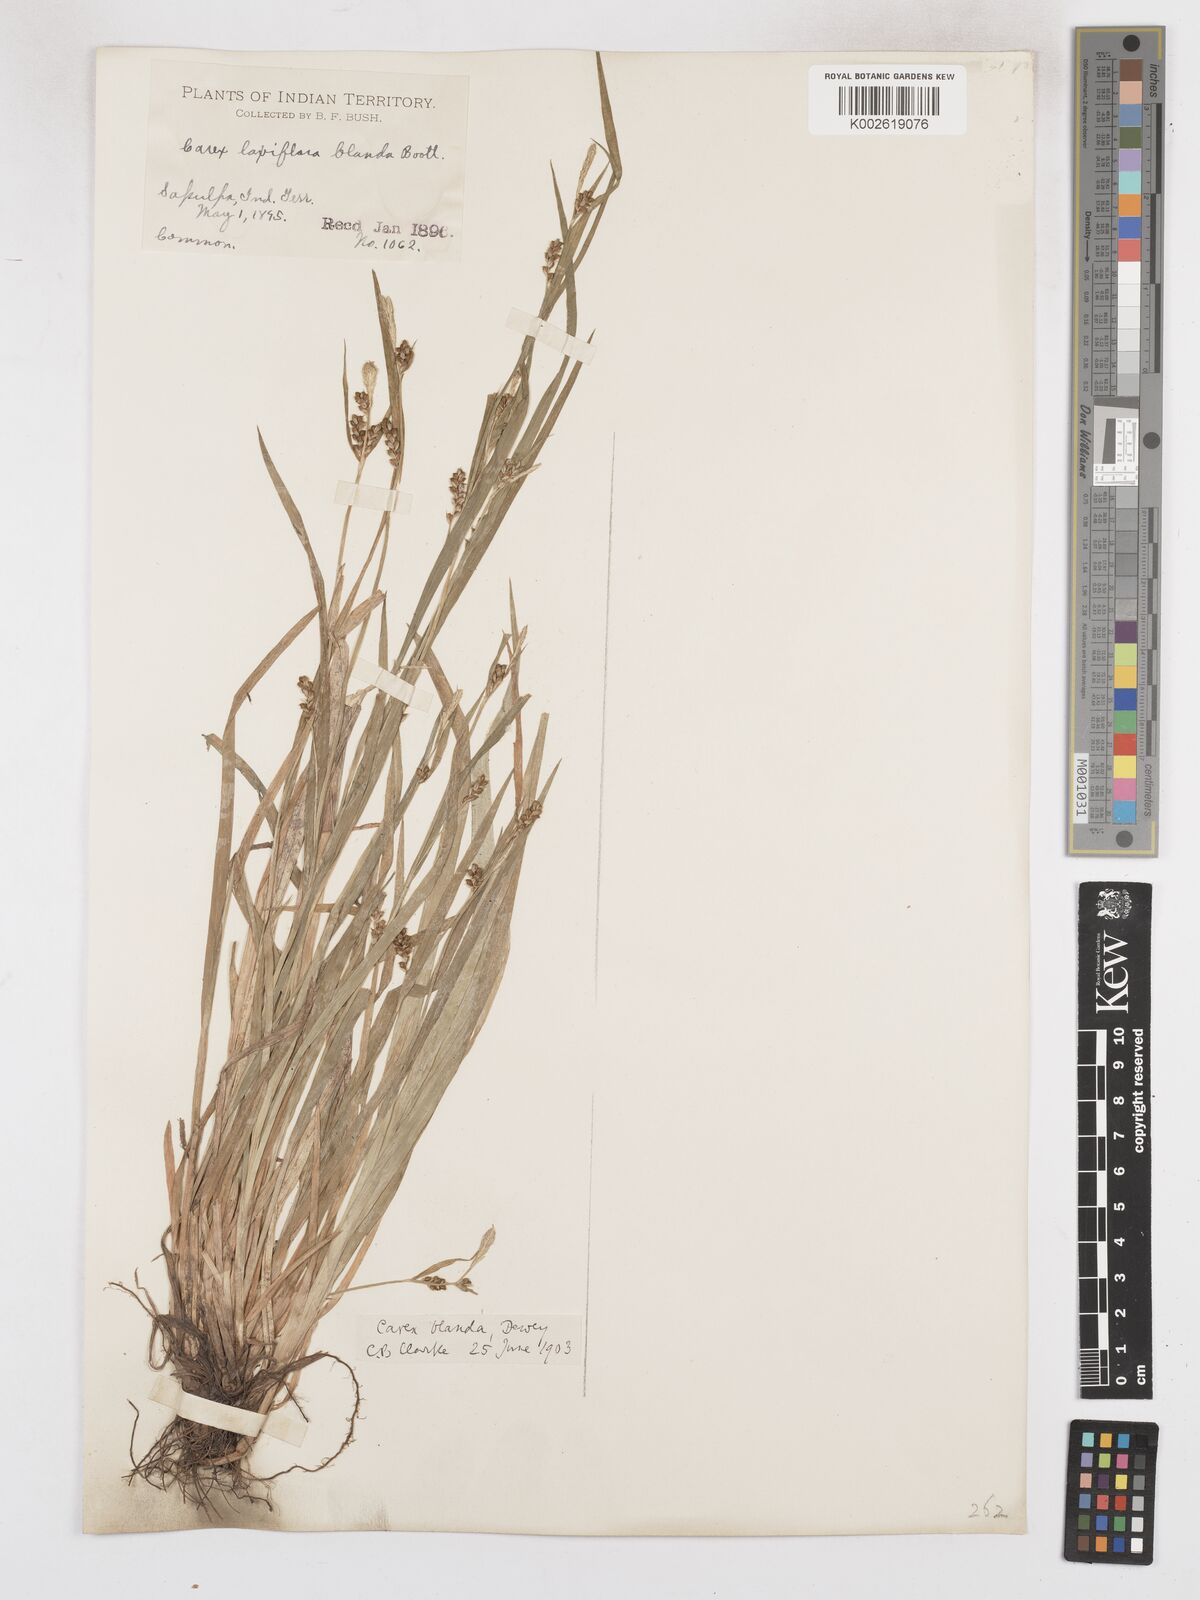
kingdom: Plantae
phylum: Tracheophyta
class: Liliopsida
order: Poales
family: Cyperaceae
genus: Carex
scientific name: Carex blanda
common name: Bland sedge
